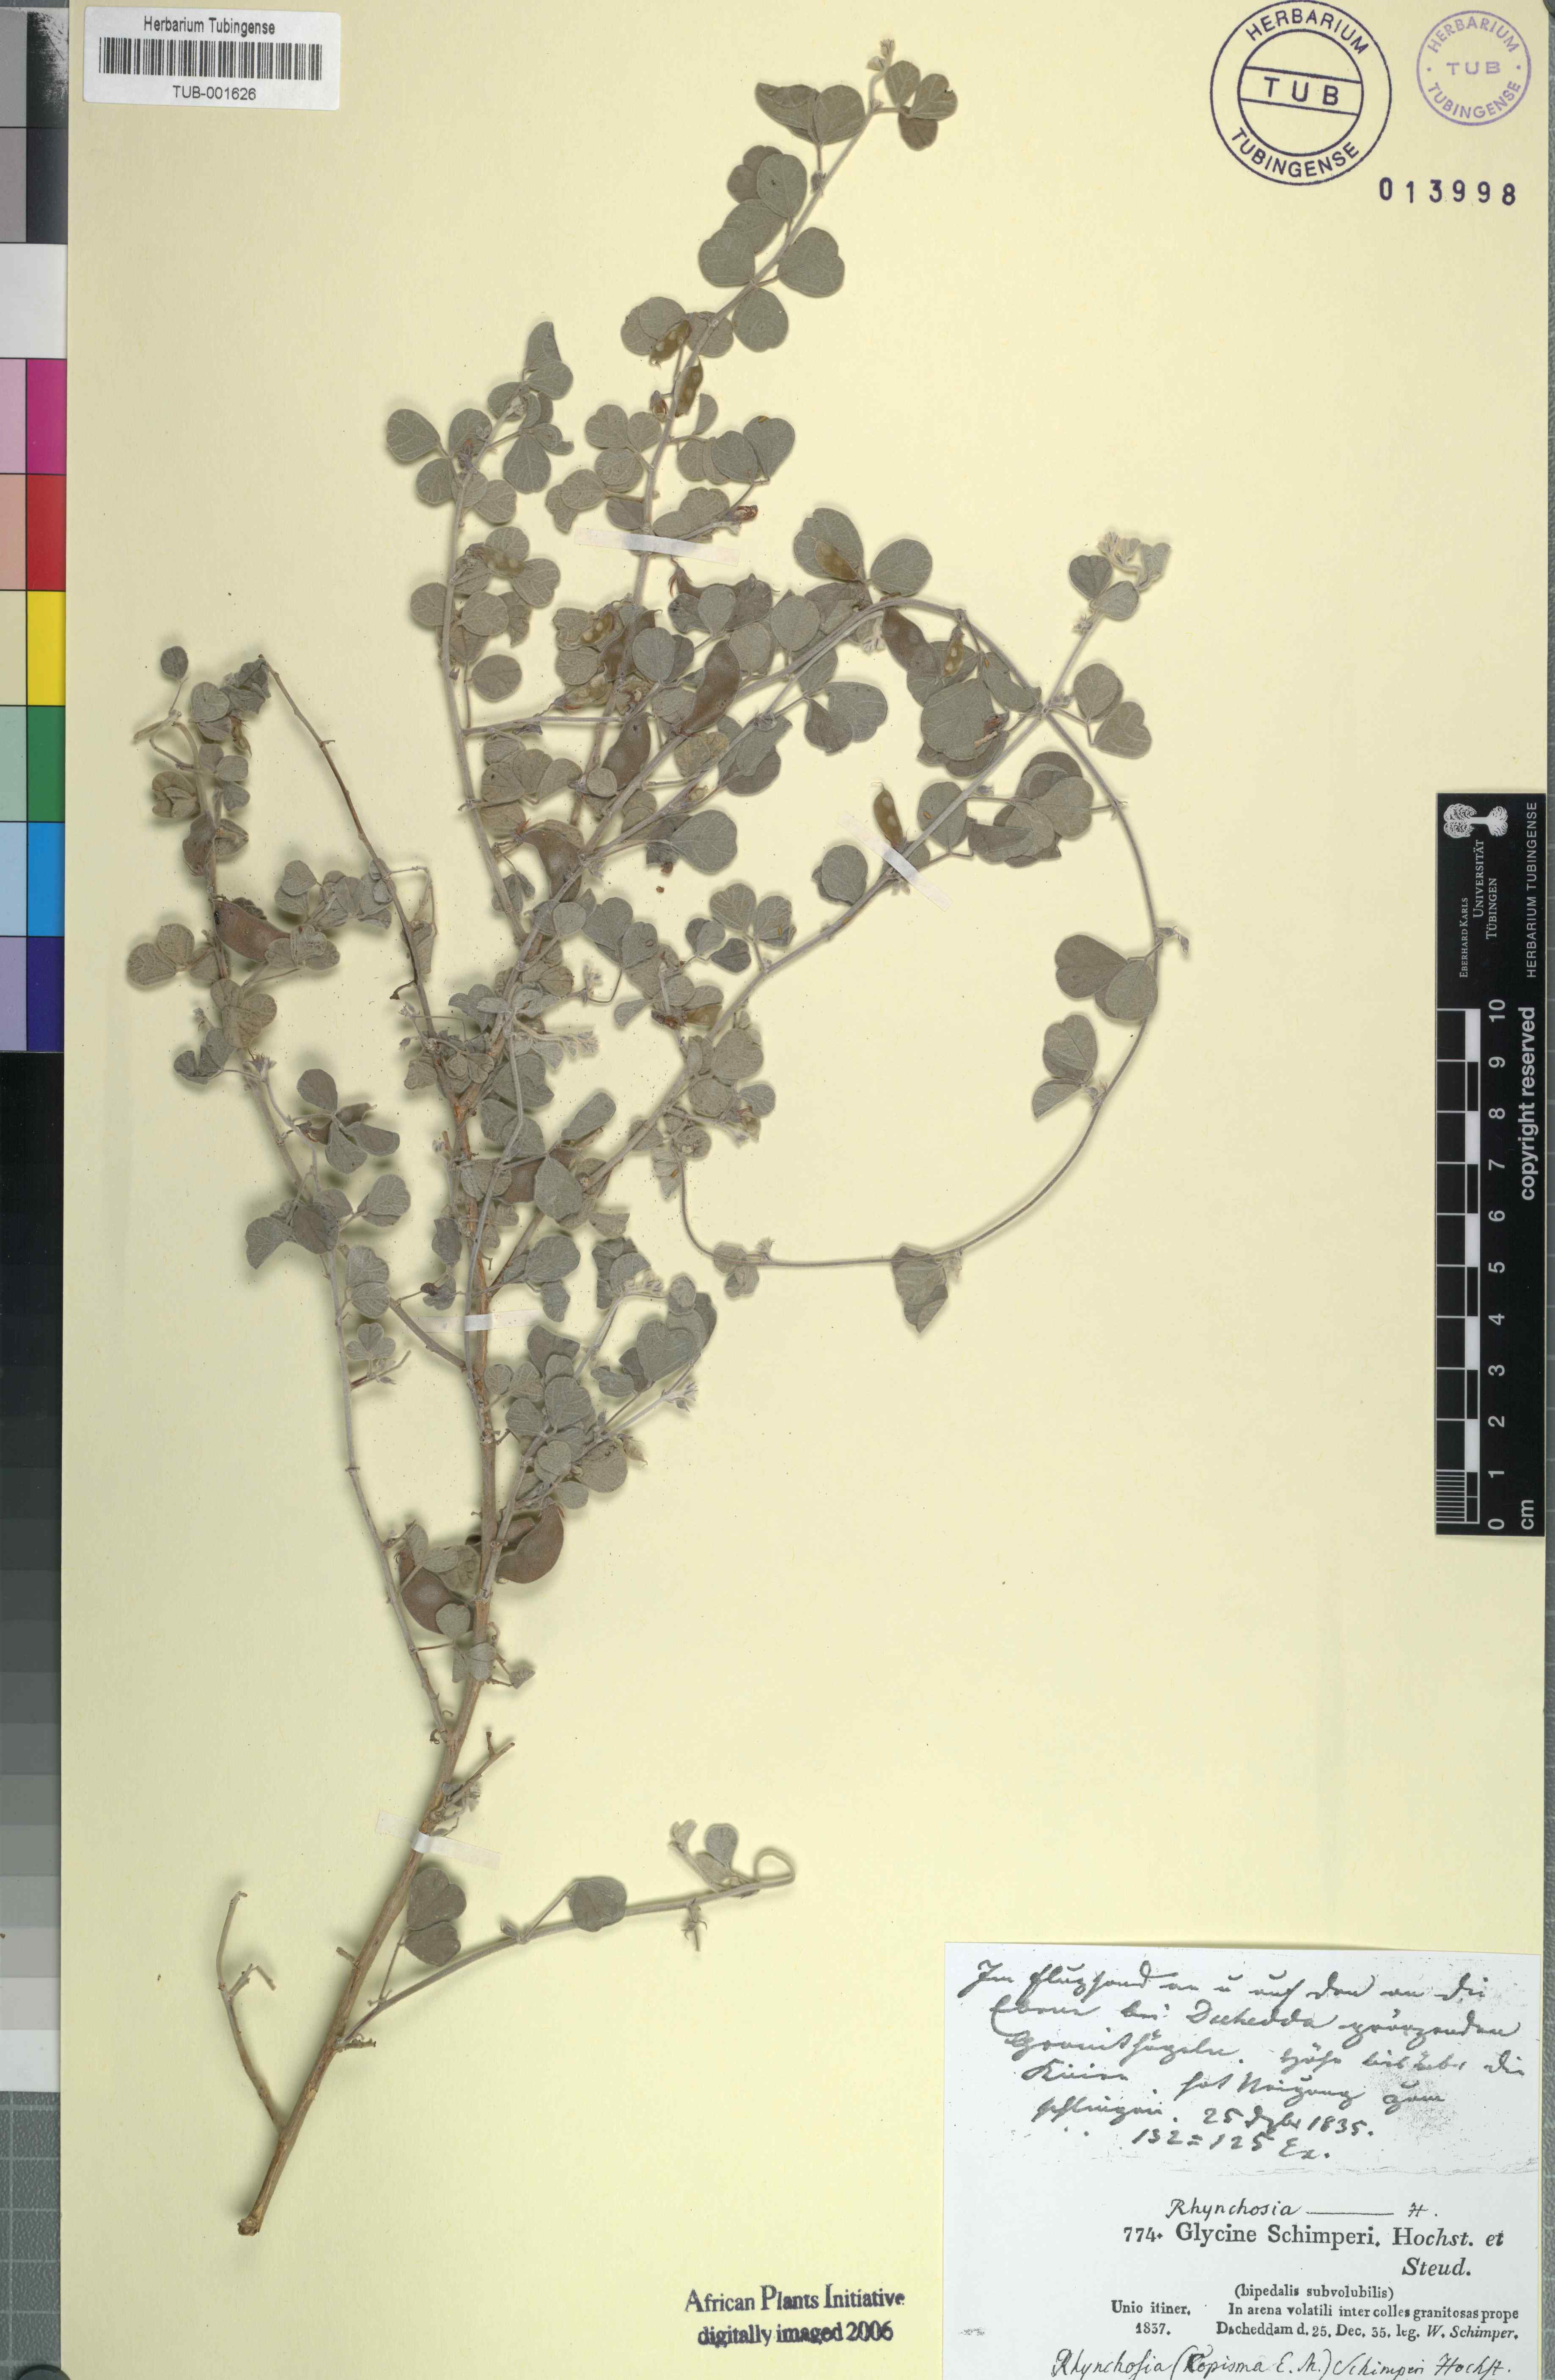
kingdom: Plantae
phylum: Tracheophyta
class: Magnoliopsida
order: Fabales
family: Fabaceae
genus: Rhynchosia
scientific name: Rhynchosia schimperi
